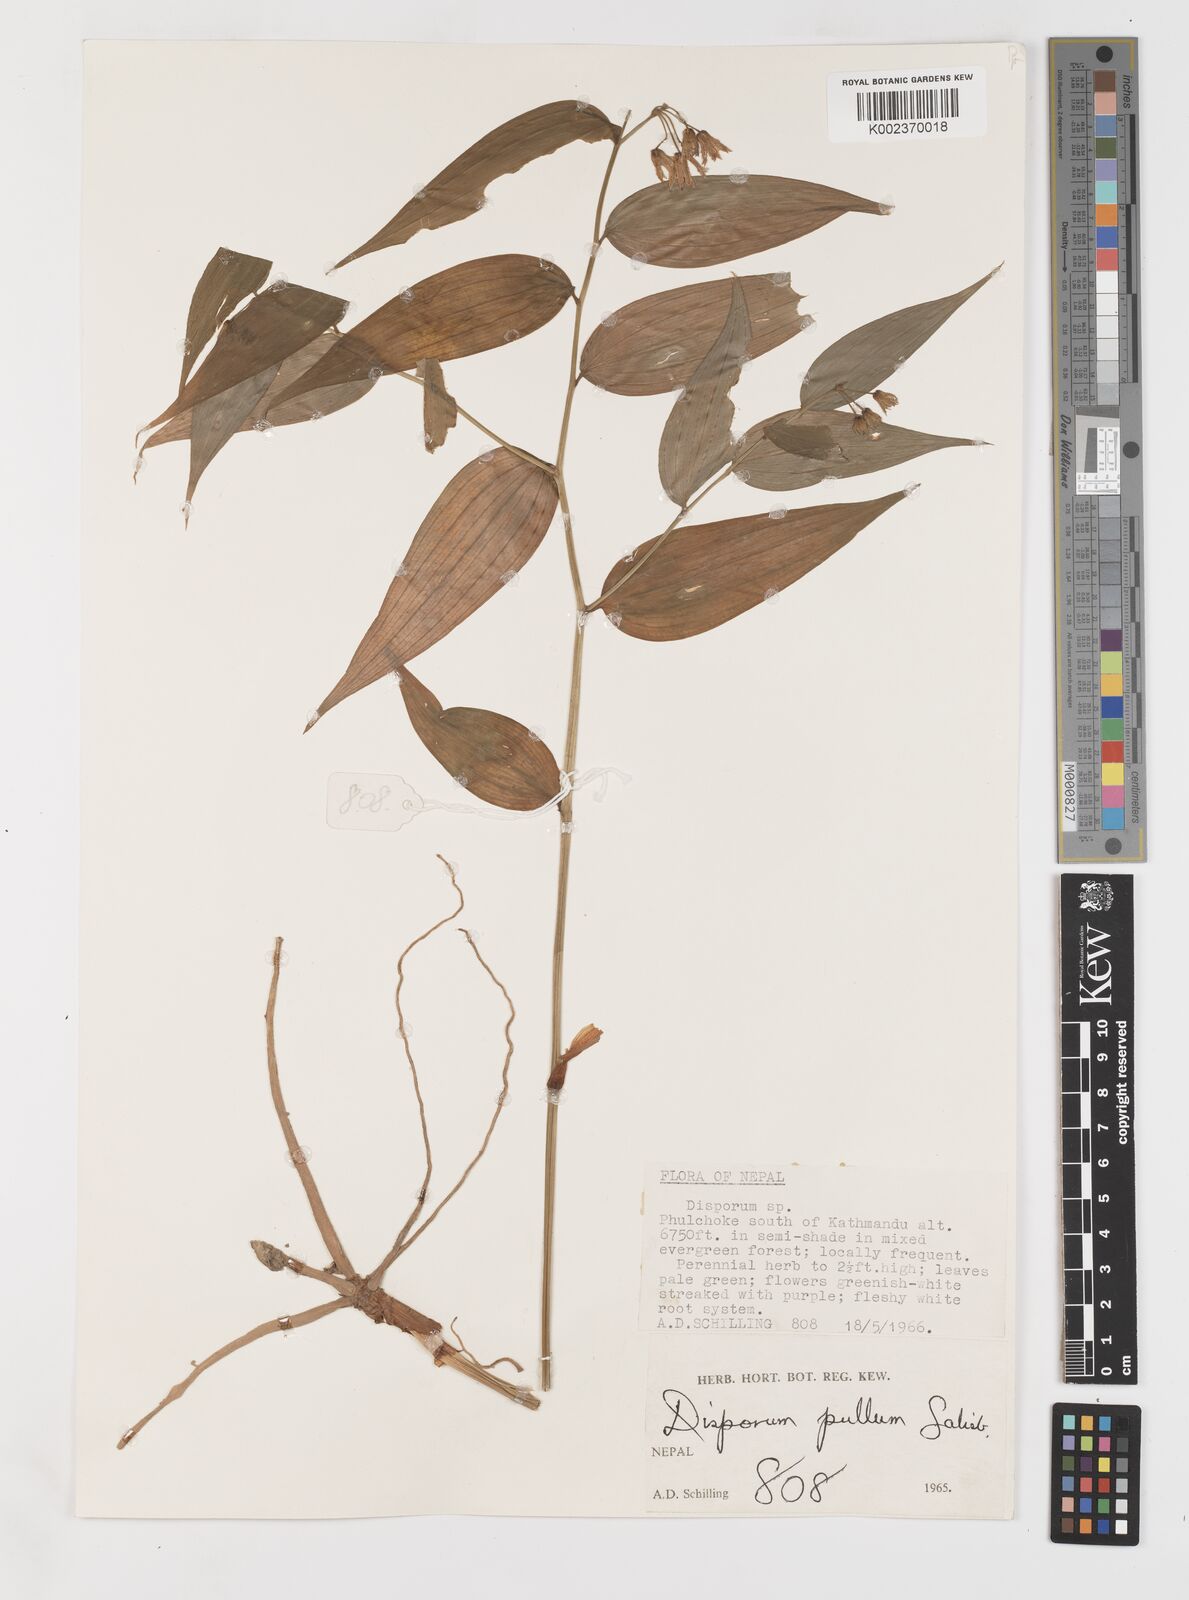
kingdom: Plantae
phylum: Tracheophyta
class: Liliopsida
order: Liliales
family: Colchicaceae
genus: Disporum
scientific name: Disporum cantoniense
